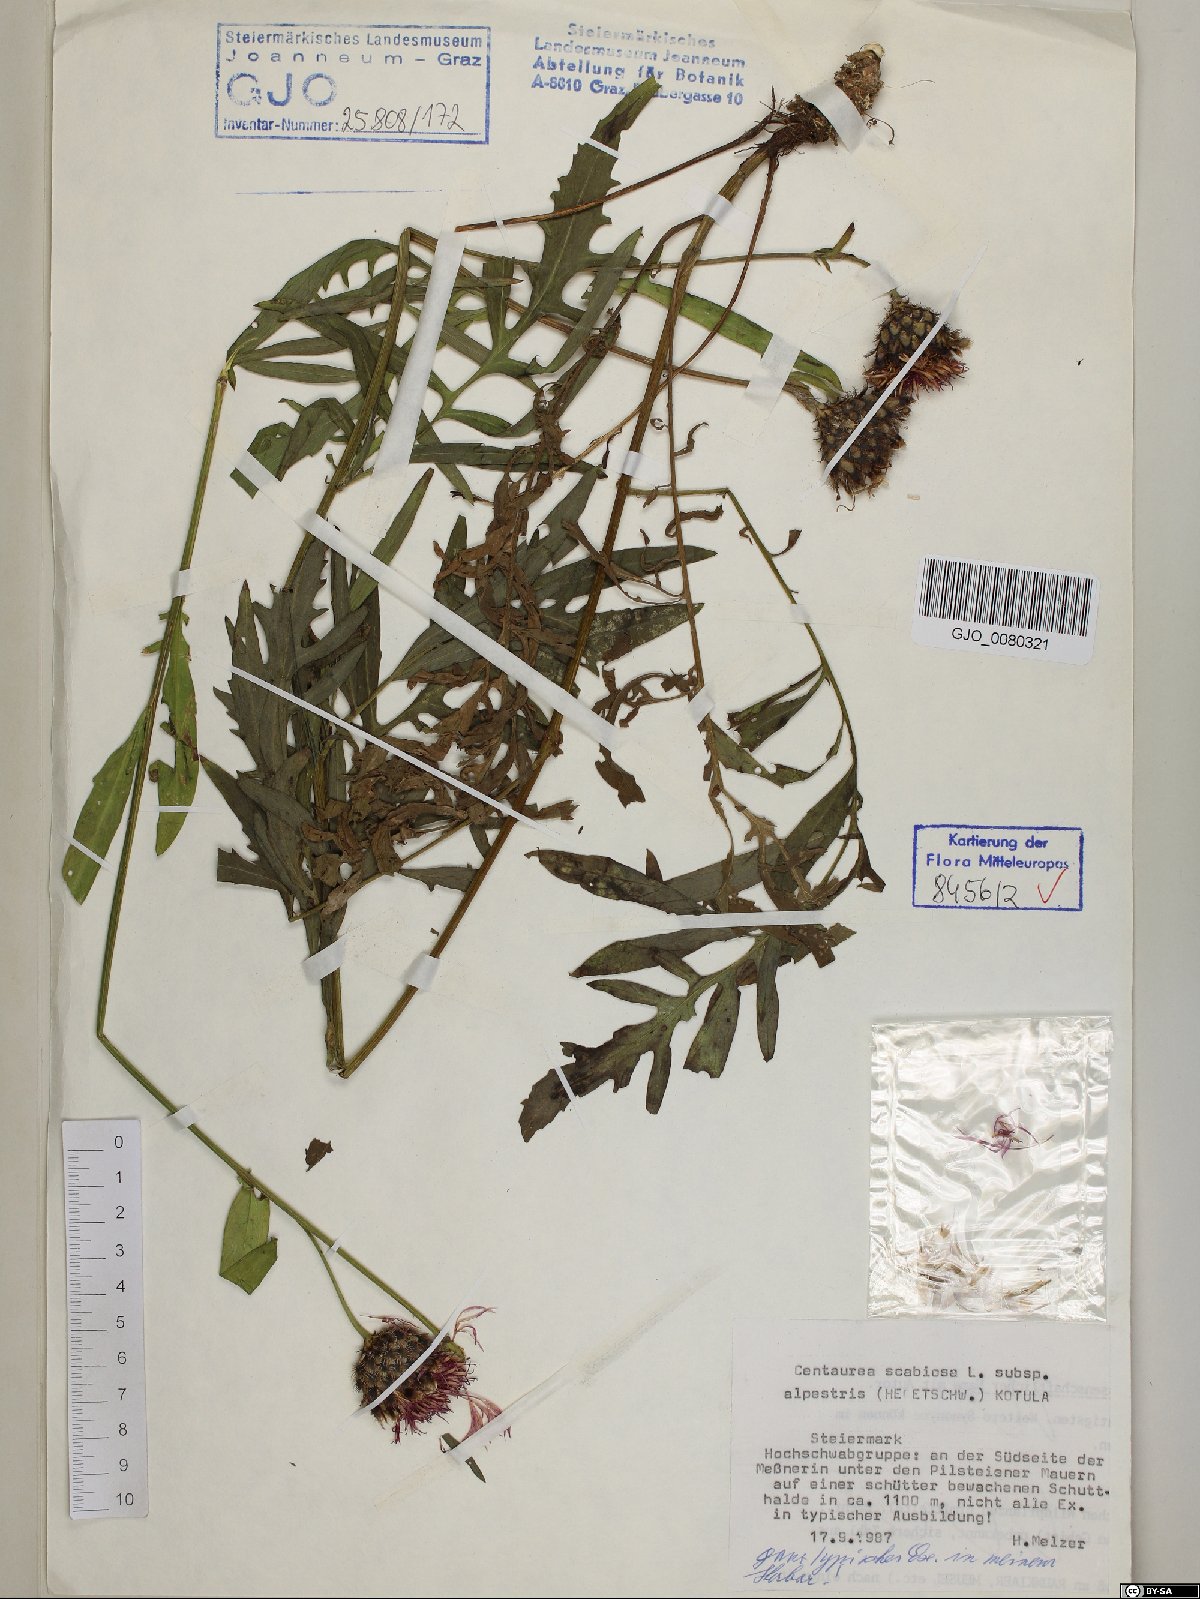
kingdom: Plantae
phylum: Tracheophyta
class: Magnoliopsida
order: Asterales
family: Asteraceae
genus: Centaurea
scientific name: Centaurea scabiosa
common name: Greater knapweed
